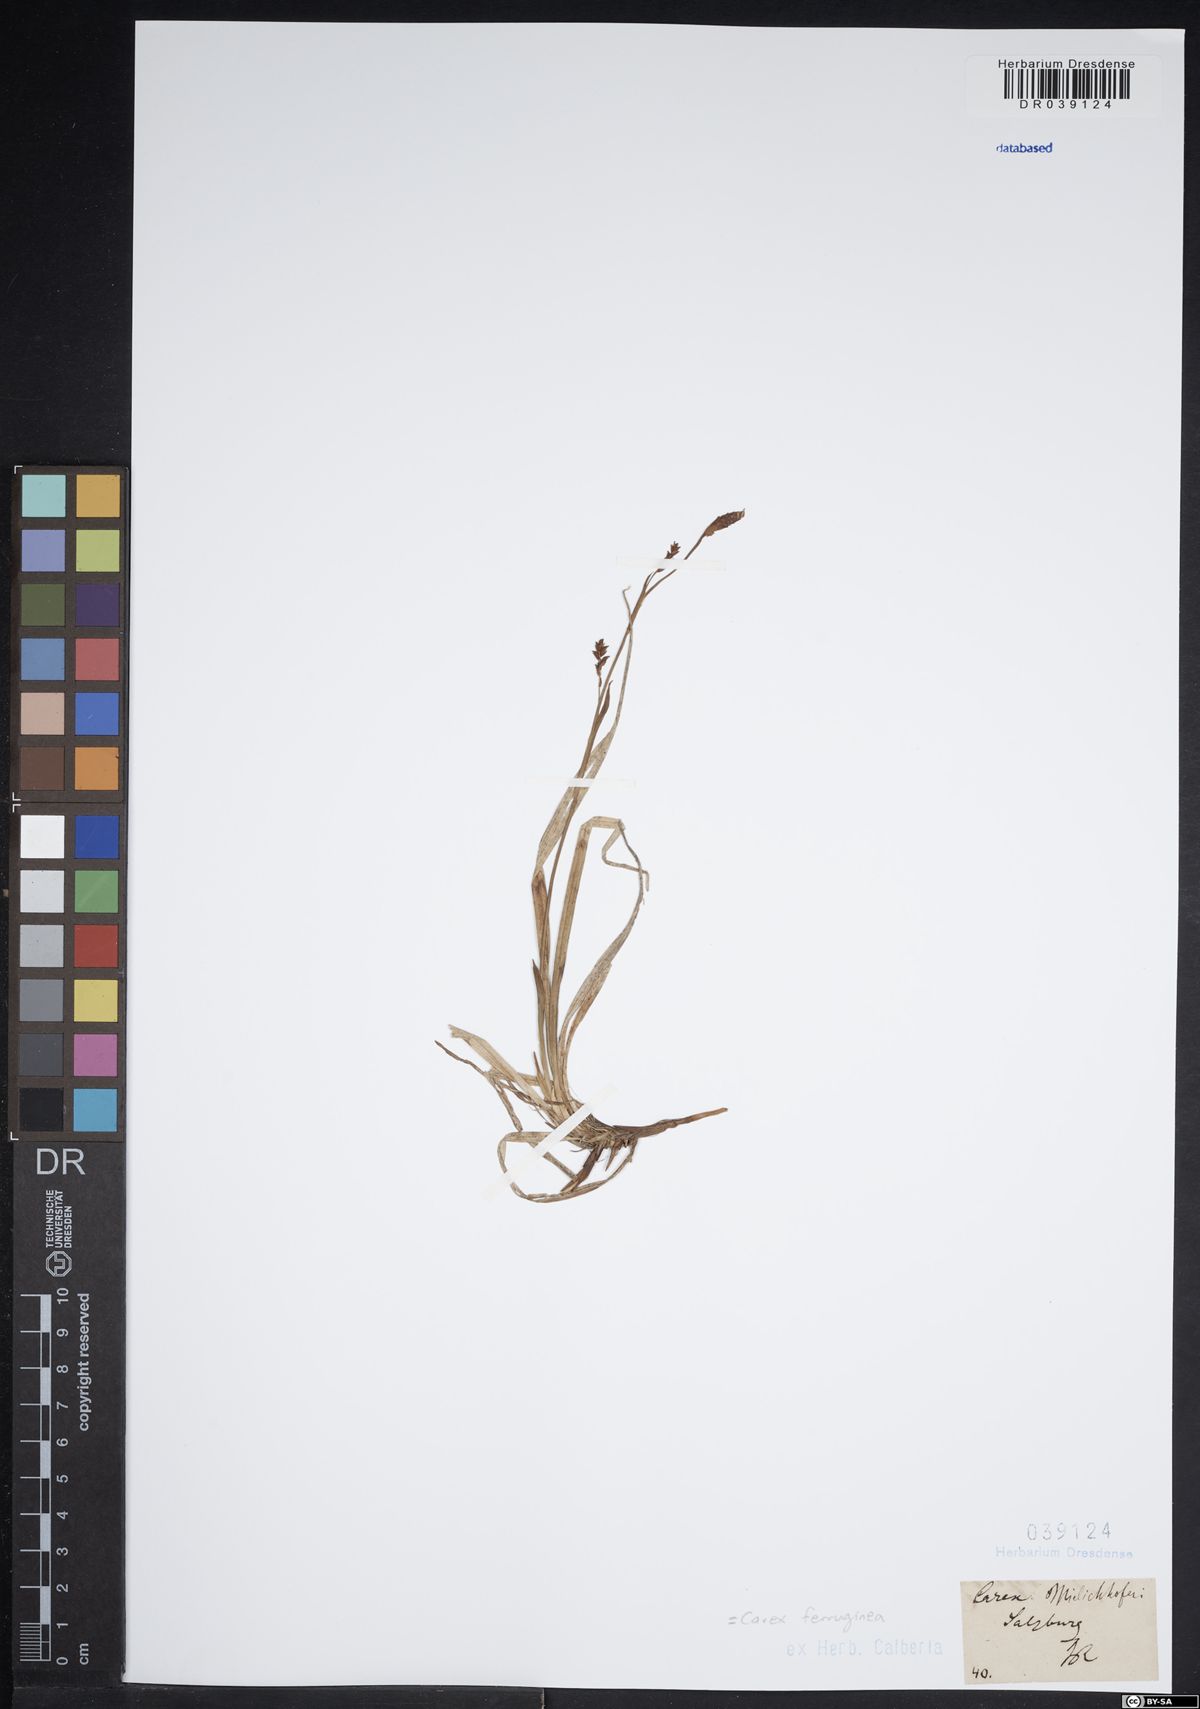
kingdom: Plantae
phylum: Tracheophyta
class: Liliopsida
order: Poales
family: Cyperaceae
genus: Carex
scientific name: Carex ferruginea
